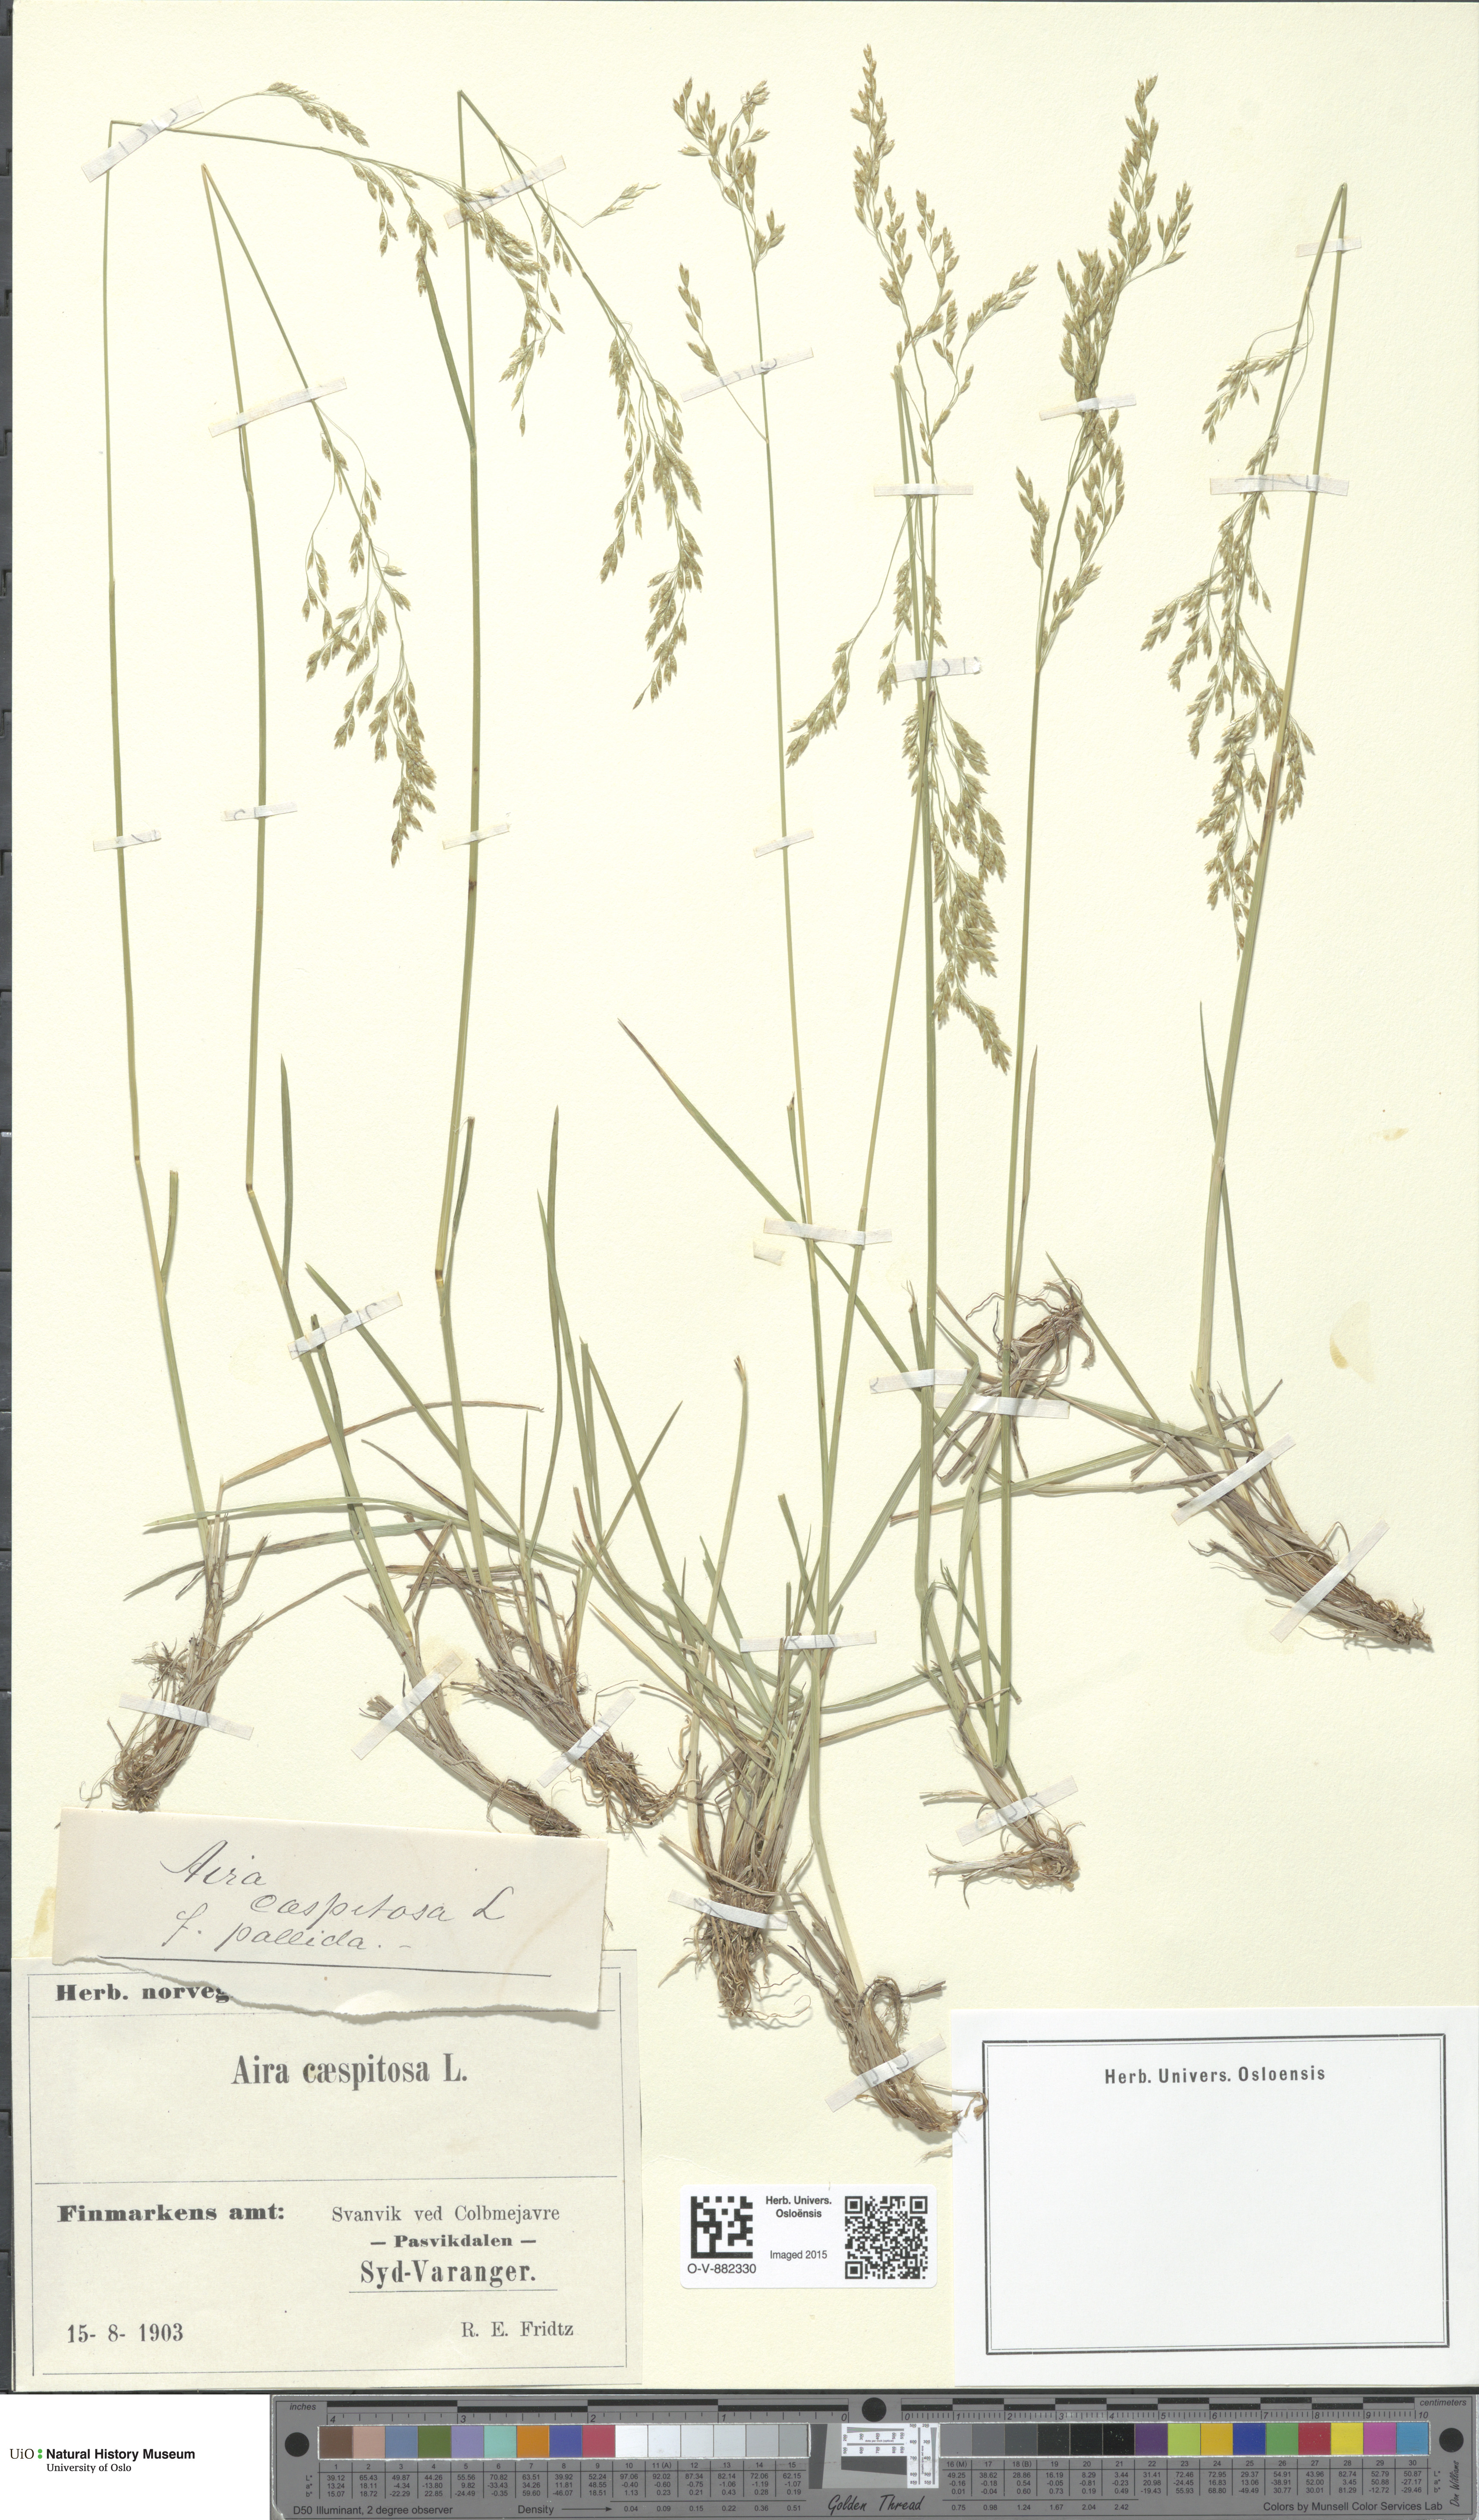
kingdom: Plantae
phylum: Tracheophyta
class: Liliopsida
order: Poales
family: Poaceae
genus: Deschampsia
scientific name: Deschampsia cespitosa
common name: Tufted hair-grass
